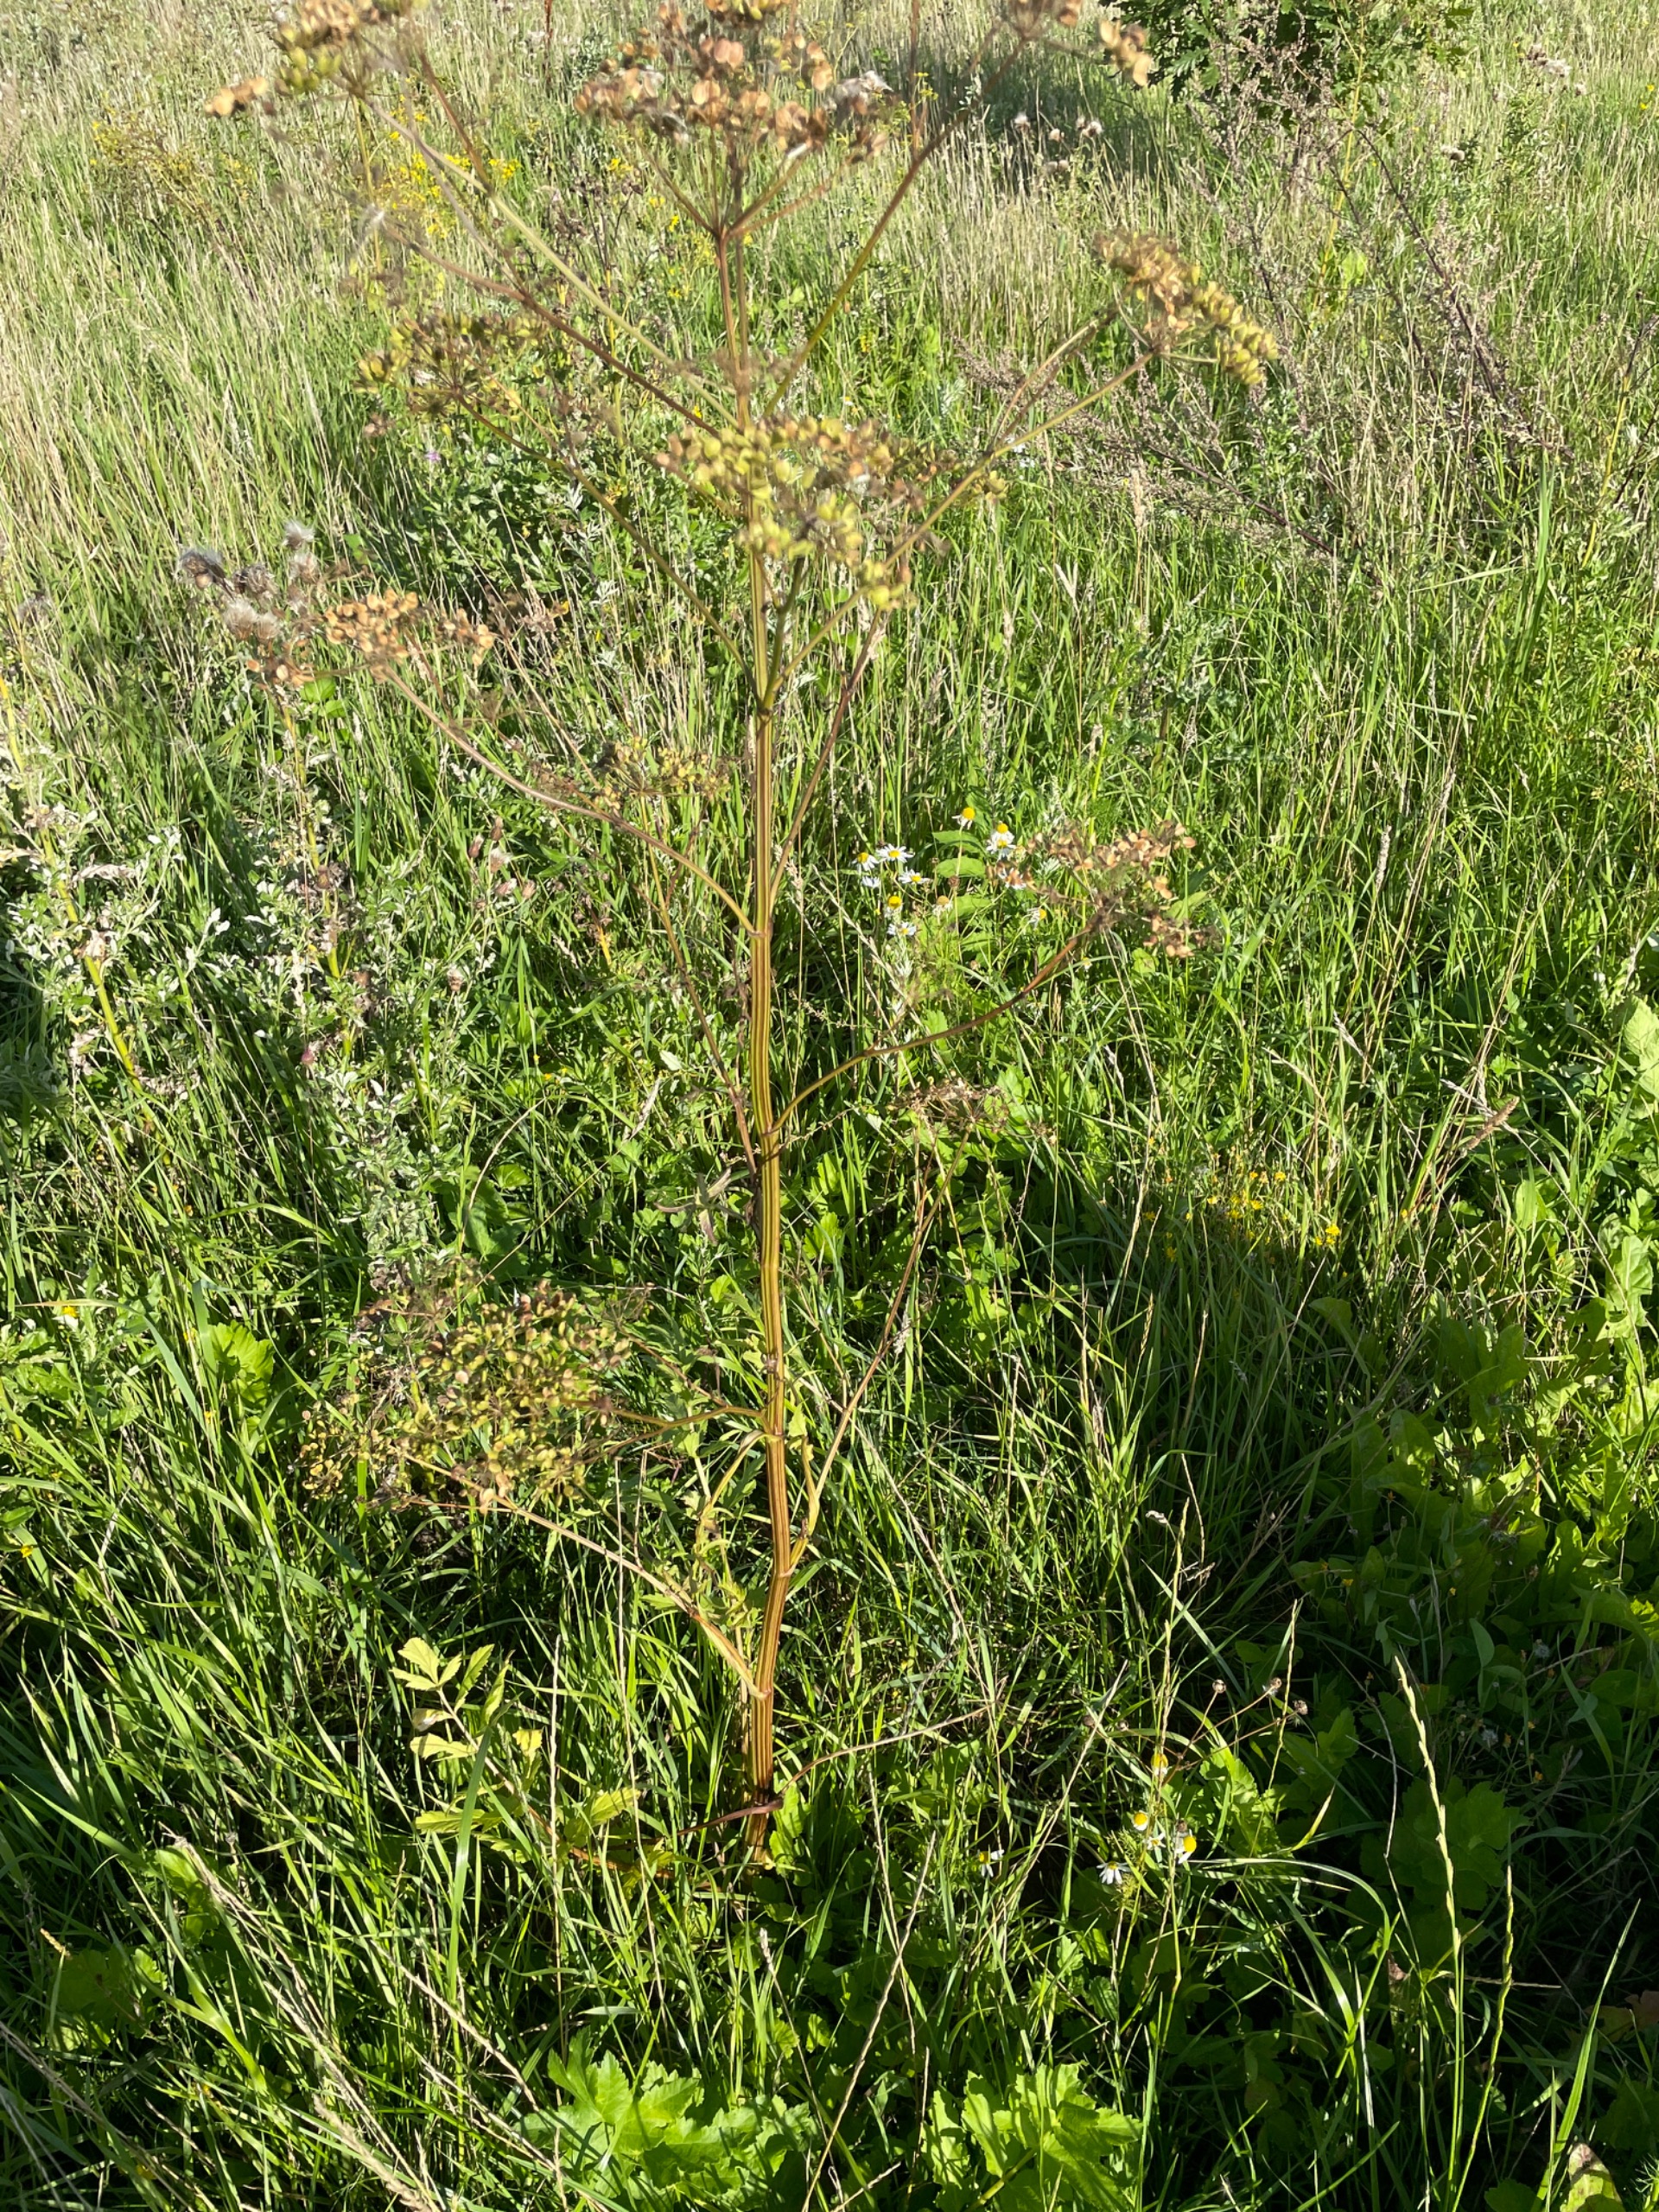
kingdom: Plantae
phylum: Tracheophyta
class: Magnoliopsida
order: Apiales
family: Apiaceae
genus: Pastinaca
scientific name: Pastinaca sativa
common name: Pastinak
